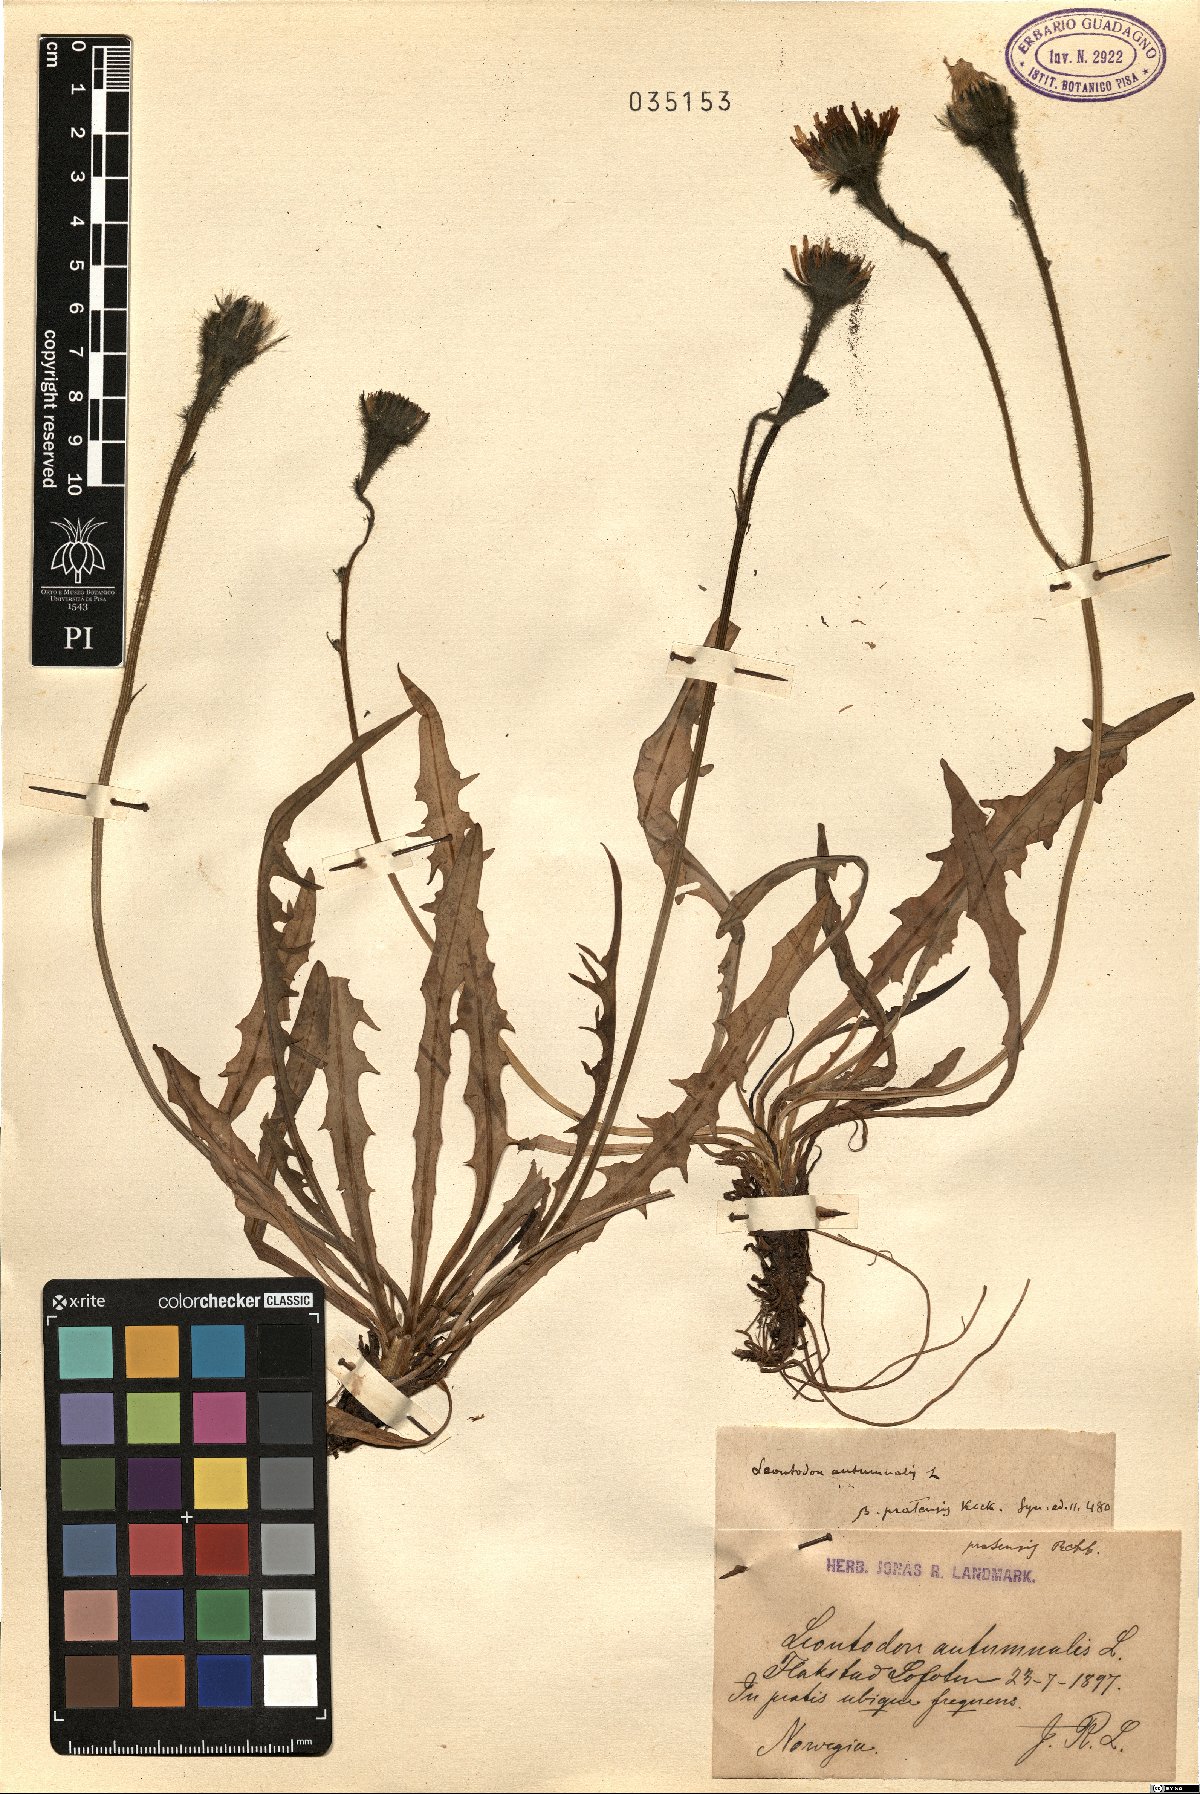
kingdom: Plantae
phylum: Tracheophyta
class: Magnoliopsida
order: Asterales
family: Asteraceae
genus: Scorzoneroides
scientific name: Scorzoneroides autumnalis
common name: Autumn hawkbit
